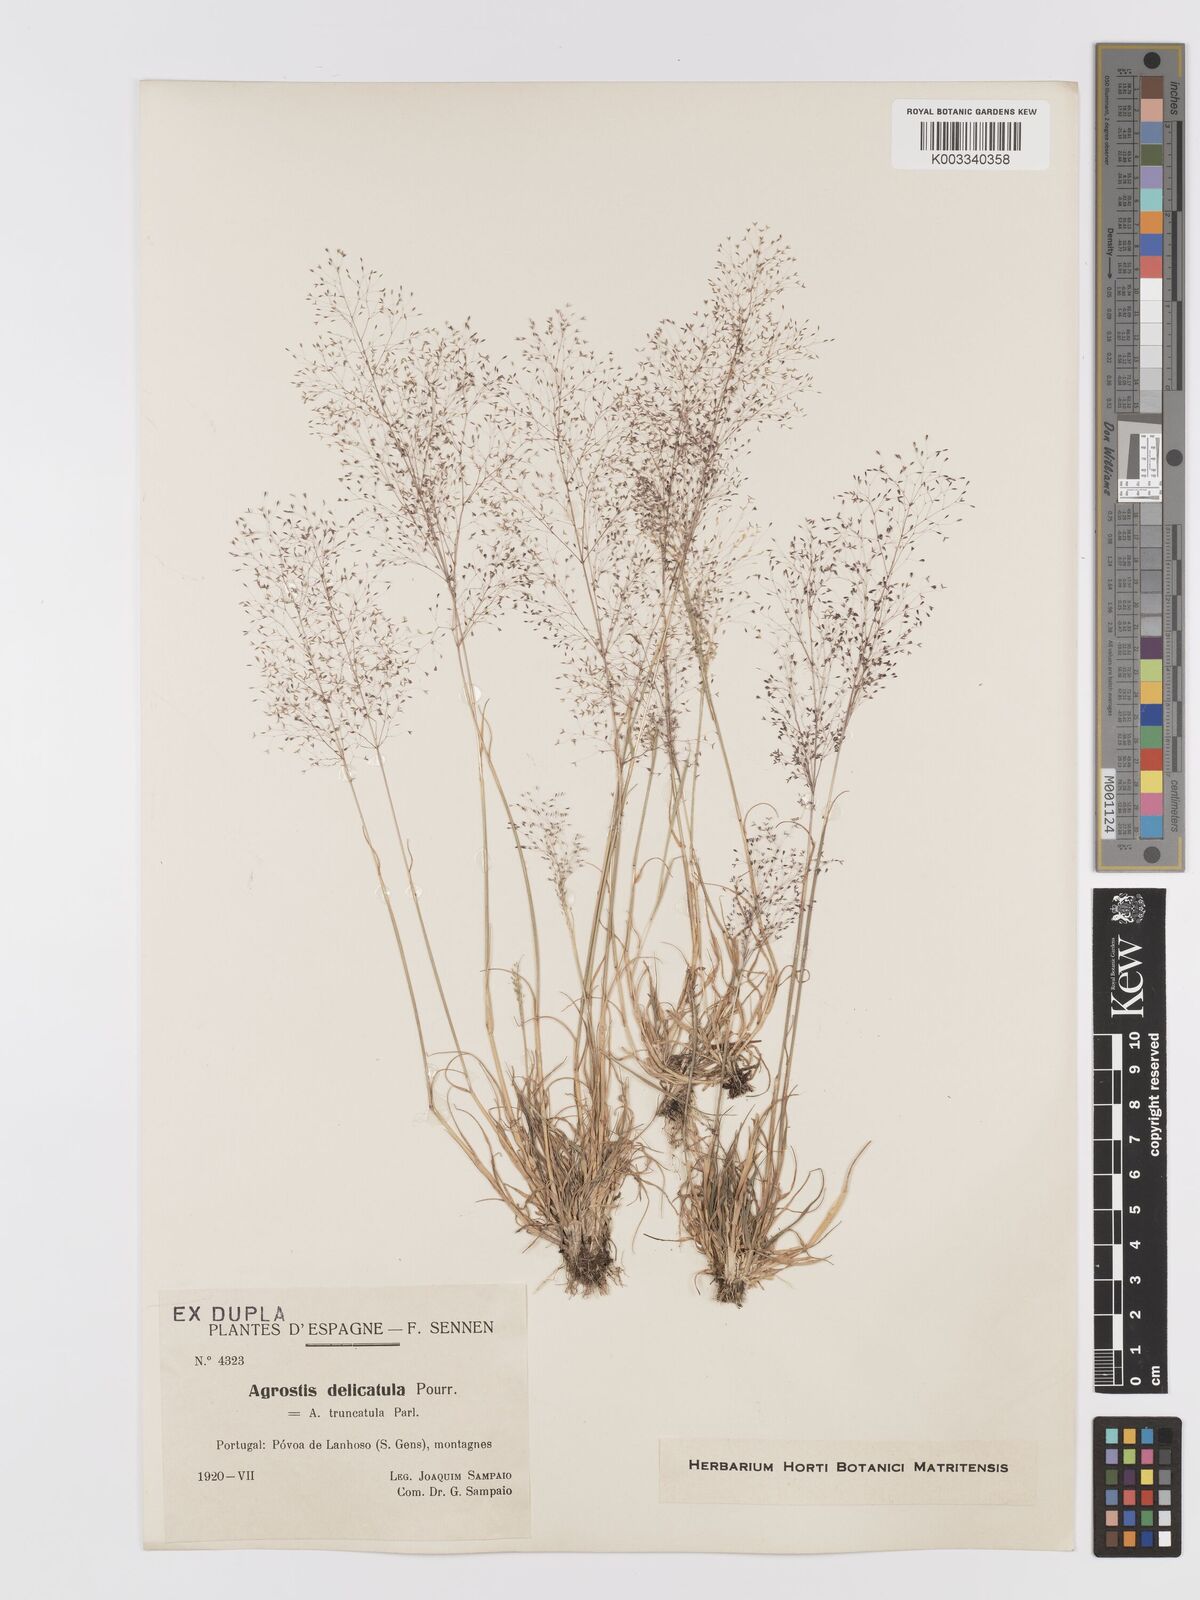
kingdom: Plantae
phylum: Tracheophyta
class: Liliopsida
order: Poales
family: Poaceae
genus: Agrostis
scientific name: Agrostis castellana
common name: Highland bent
